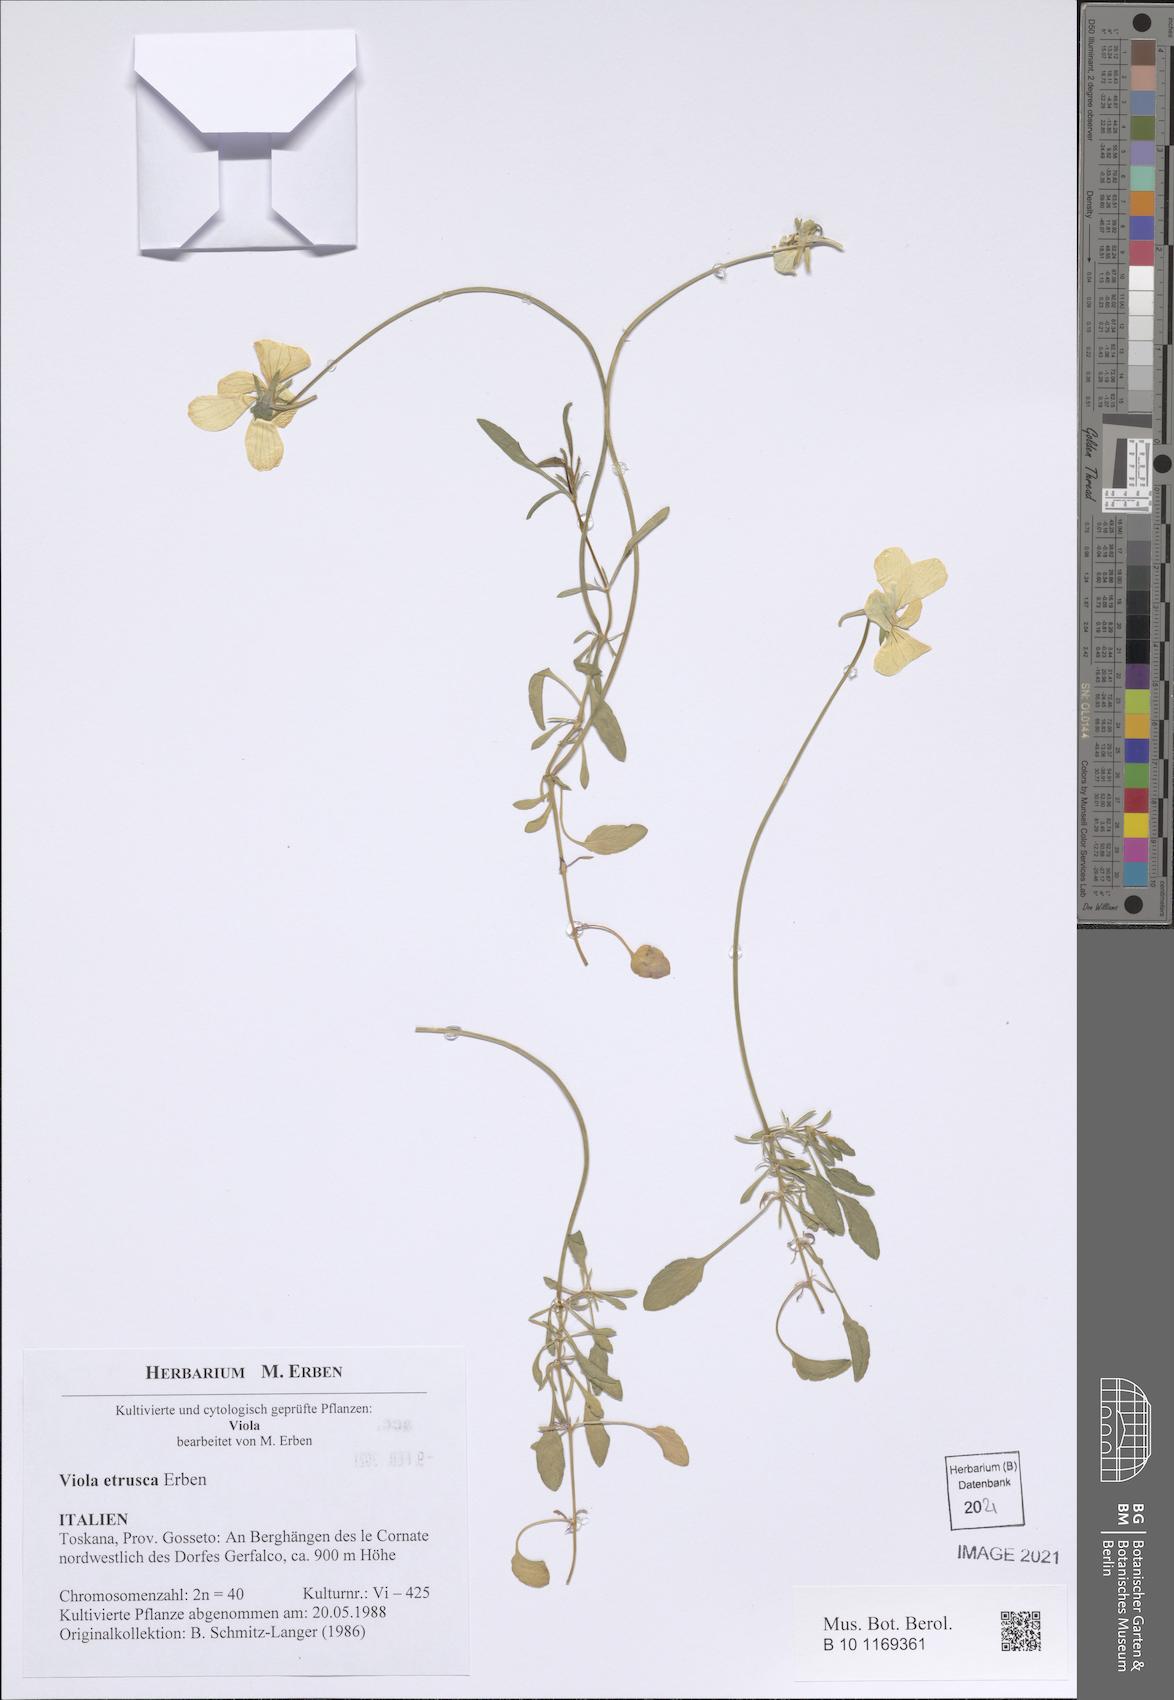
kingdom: Plantae
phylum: Tracheophyta
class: Magnoliopsida
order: Malpighiales
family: Violaceae
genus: Viola
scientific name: Viola etrusca
